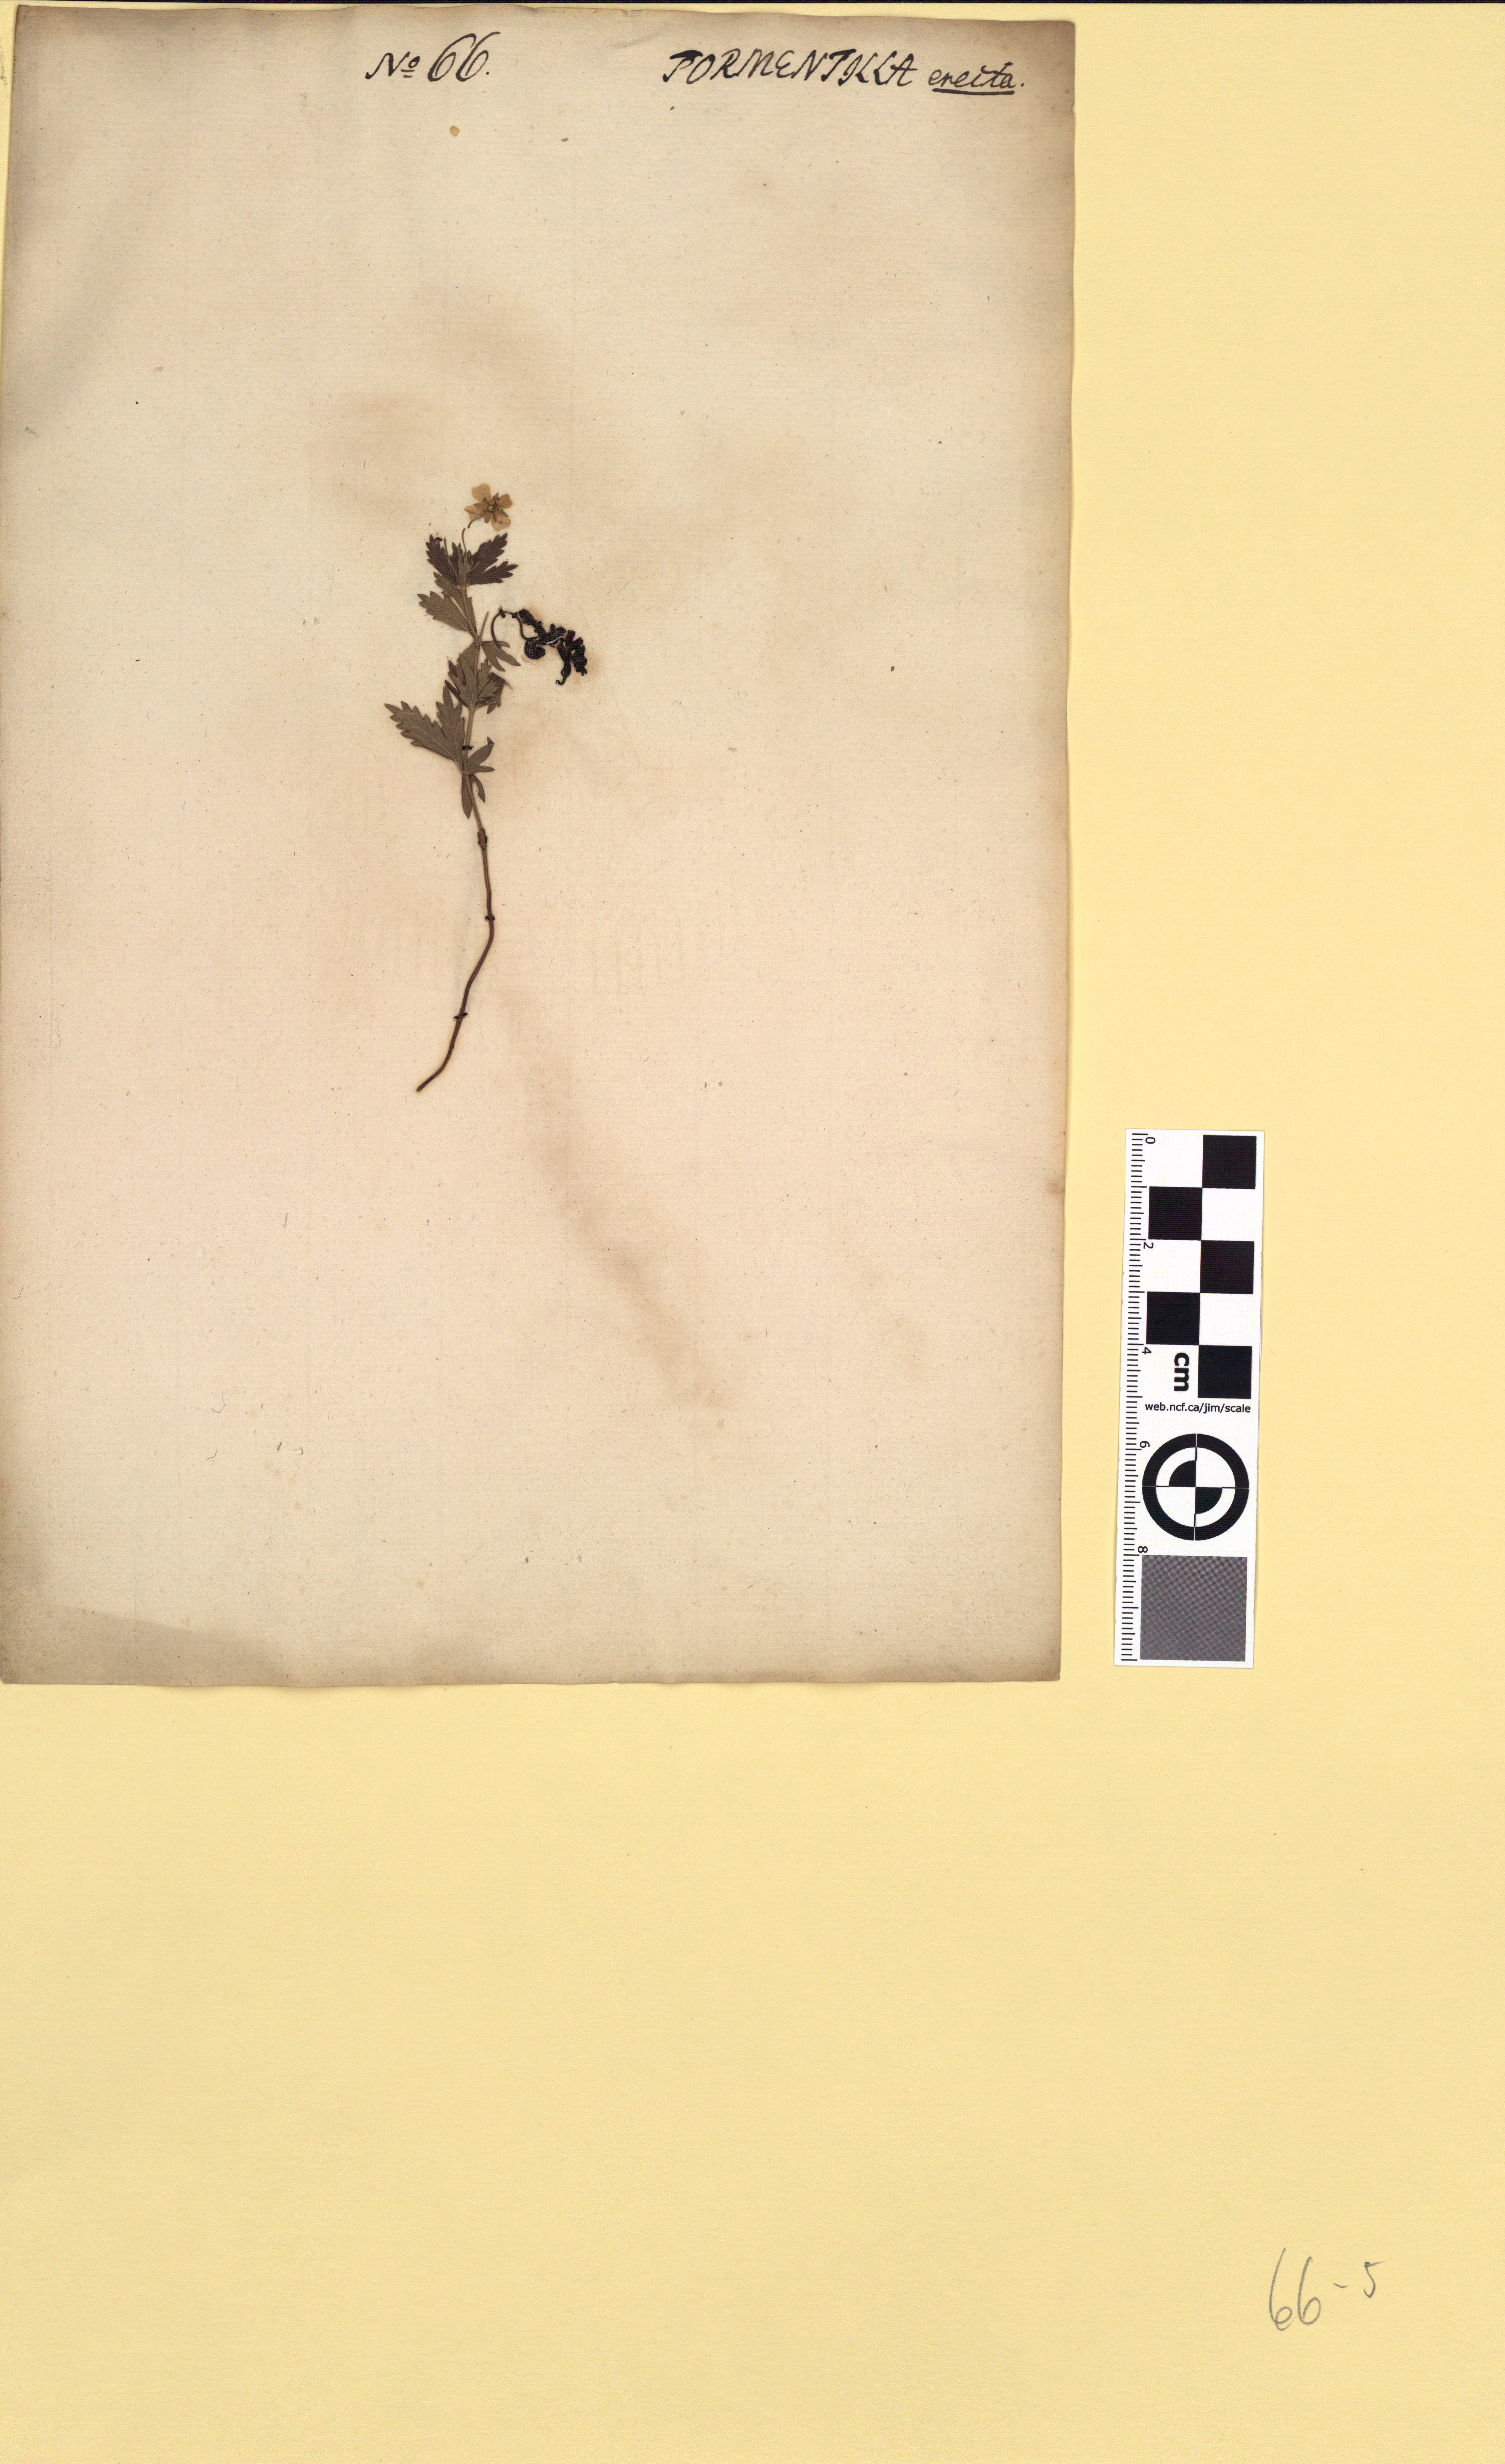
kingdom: Plantae
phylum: Tracheophyta
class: Magnoliopsida
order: Rosales
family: Rosaceae
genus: Potentilla
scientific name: Potentilla erecta
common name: Tormentil
